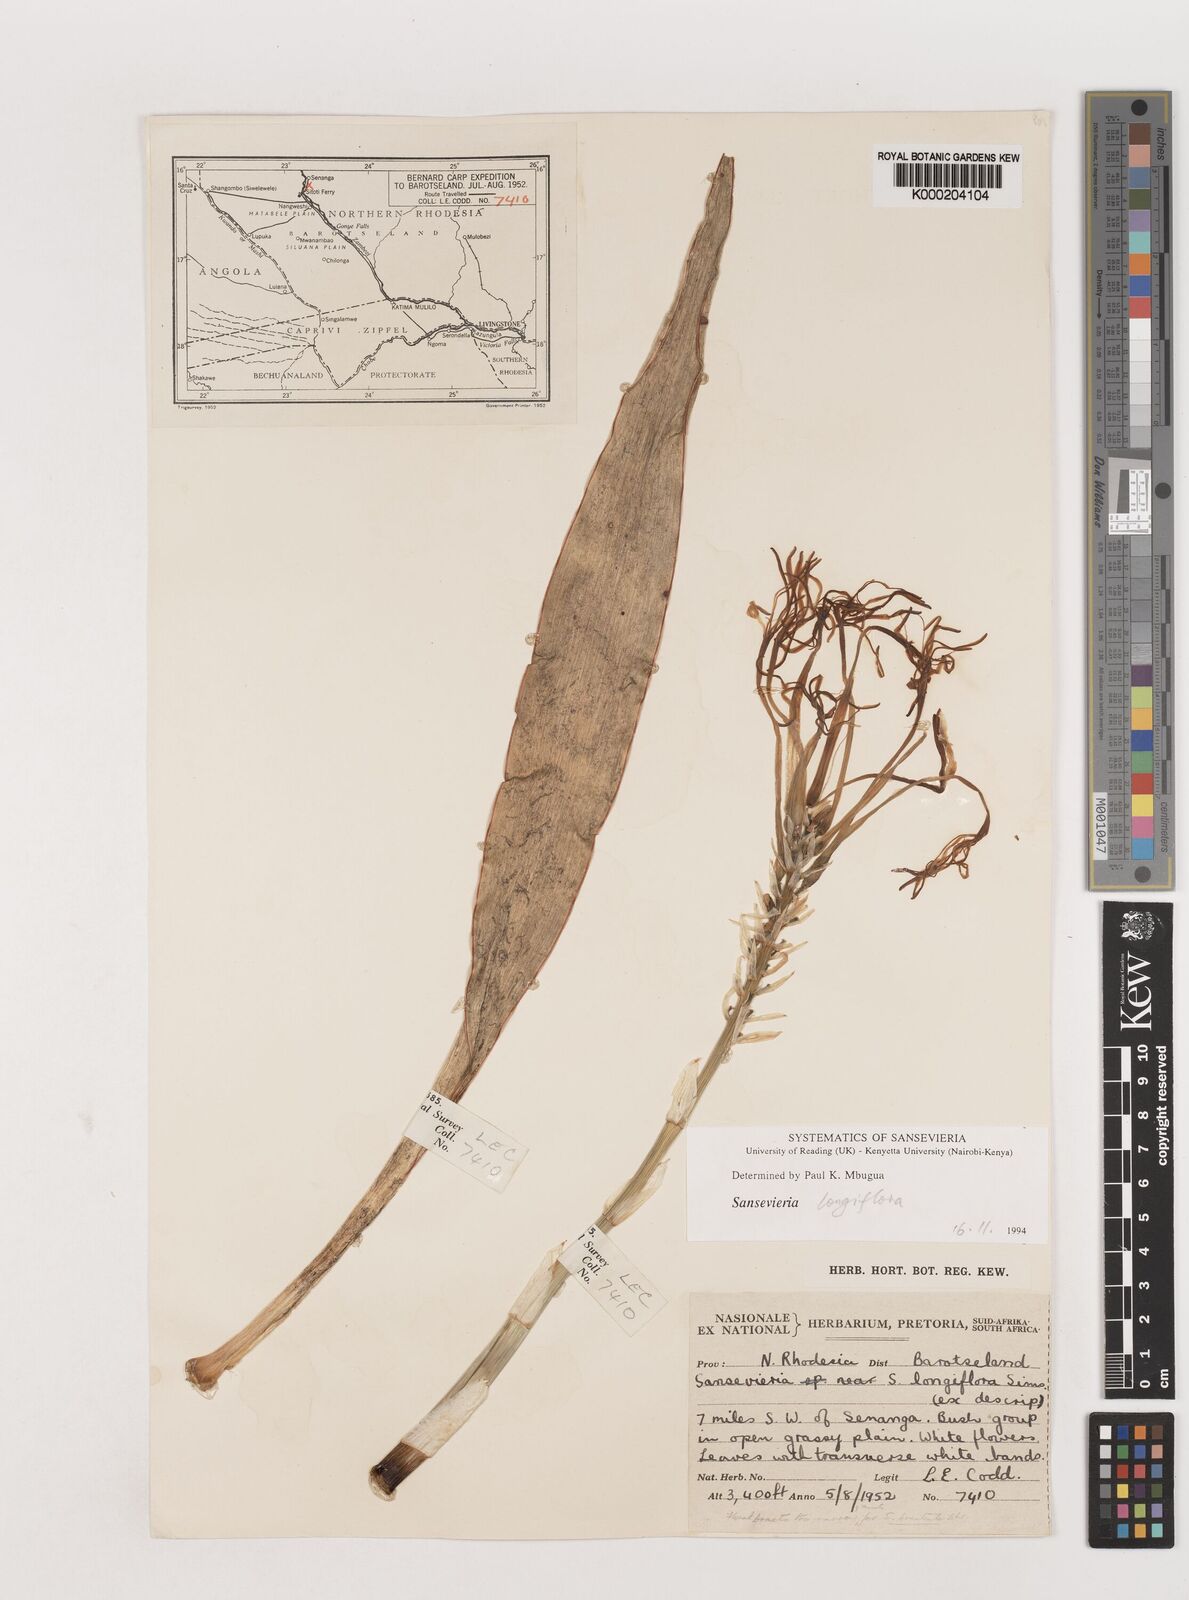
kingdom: Plantae
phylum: Tracheophyta
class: Liliopsida
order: Asparagales
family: Asparagaceae
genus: Dracaena
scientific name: Dracaena longiflora
